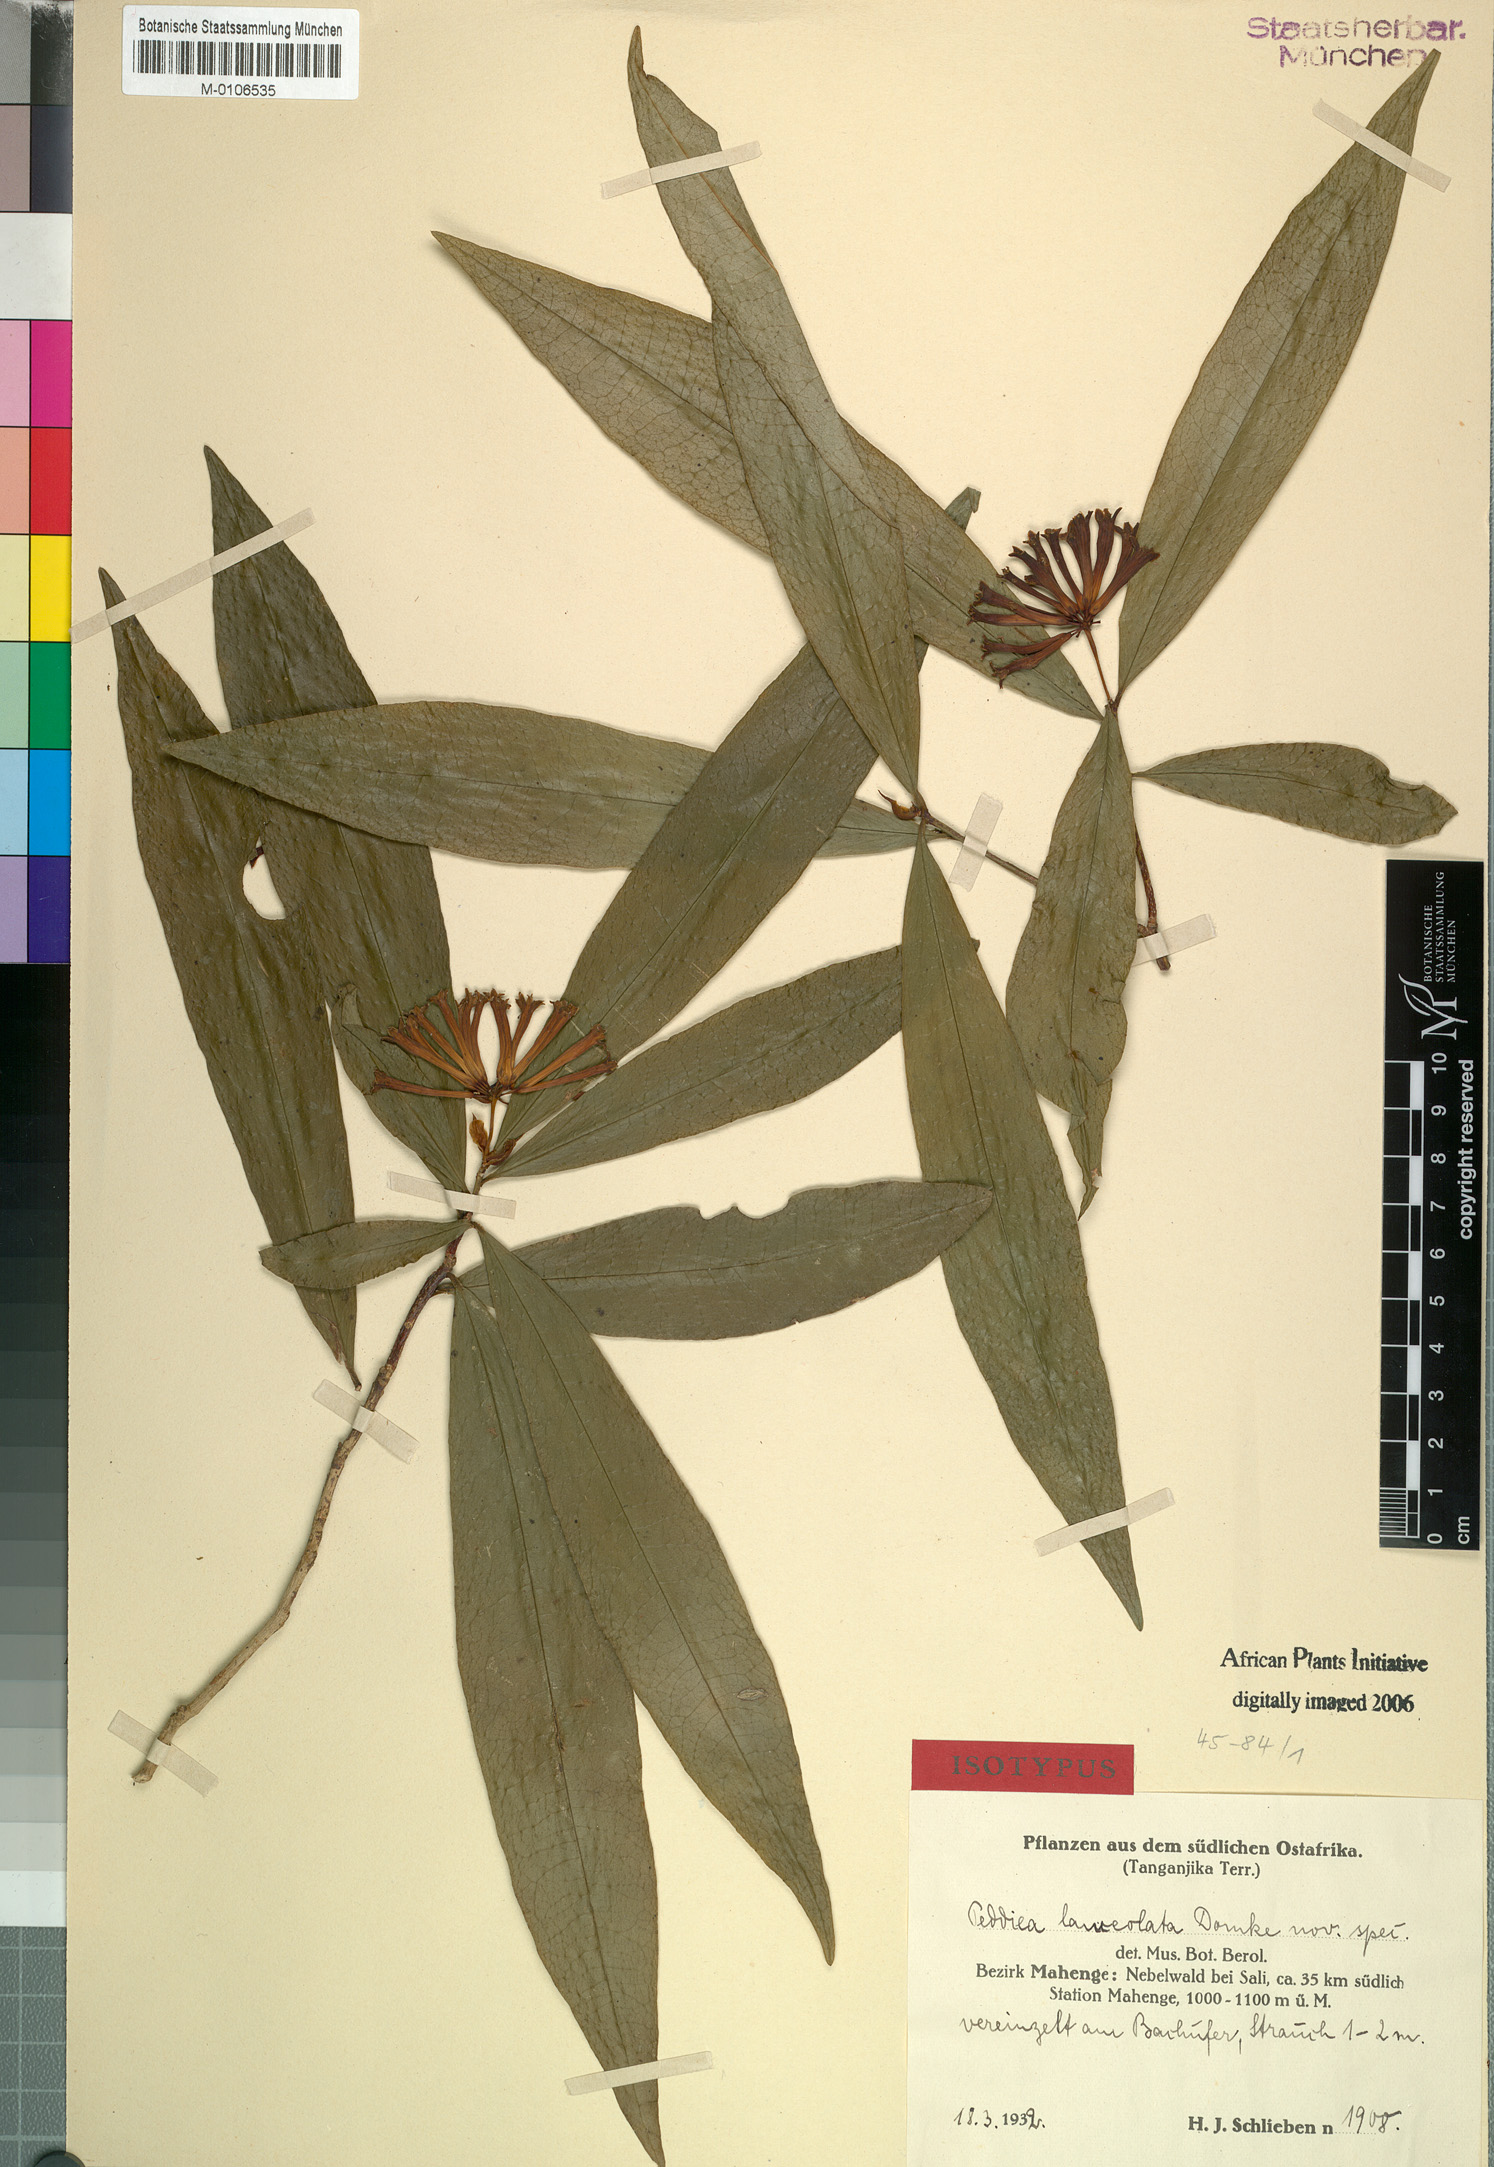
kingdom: Plantae
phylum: Tracheophyta
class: Magnoliopsida
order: Malvales
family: Thymelaeaceae
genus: Peddiea
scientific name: Peddiea lanceolata
